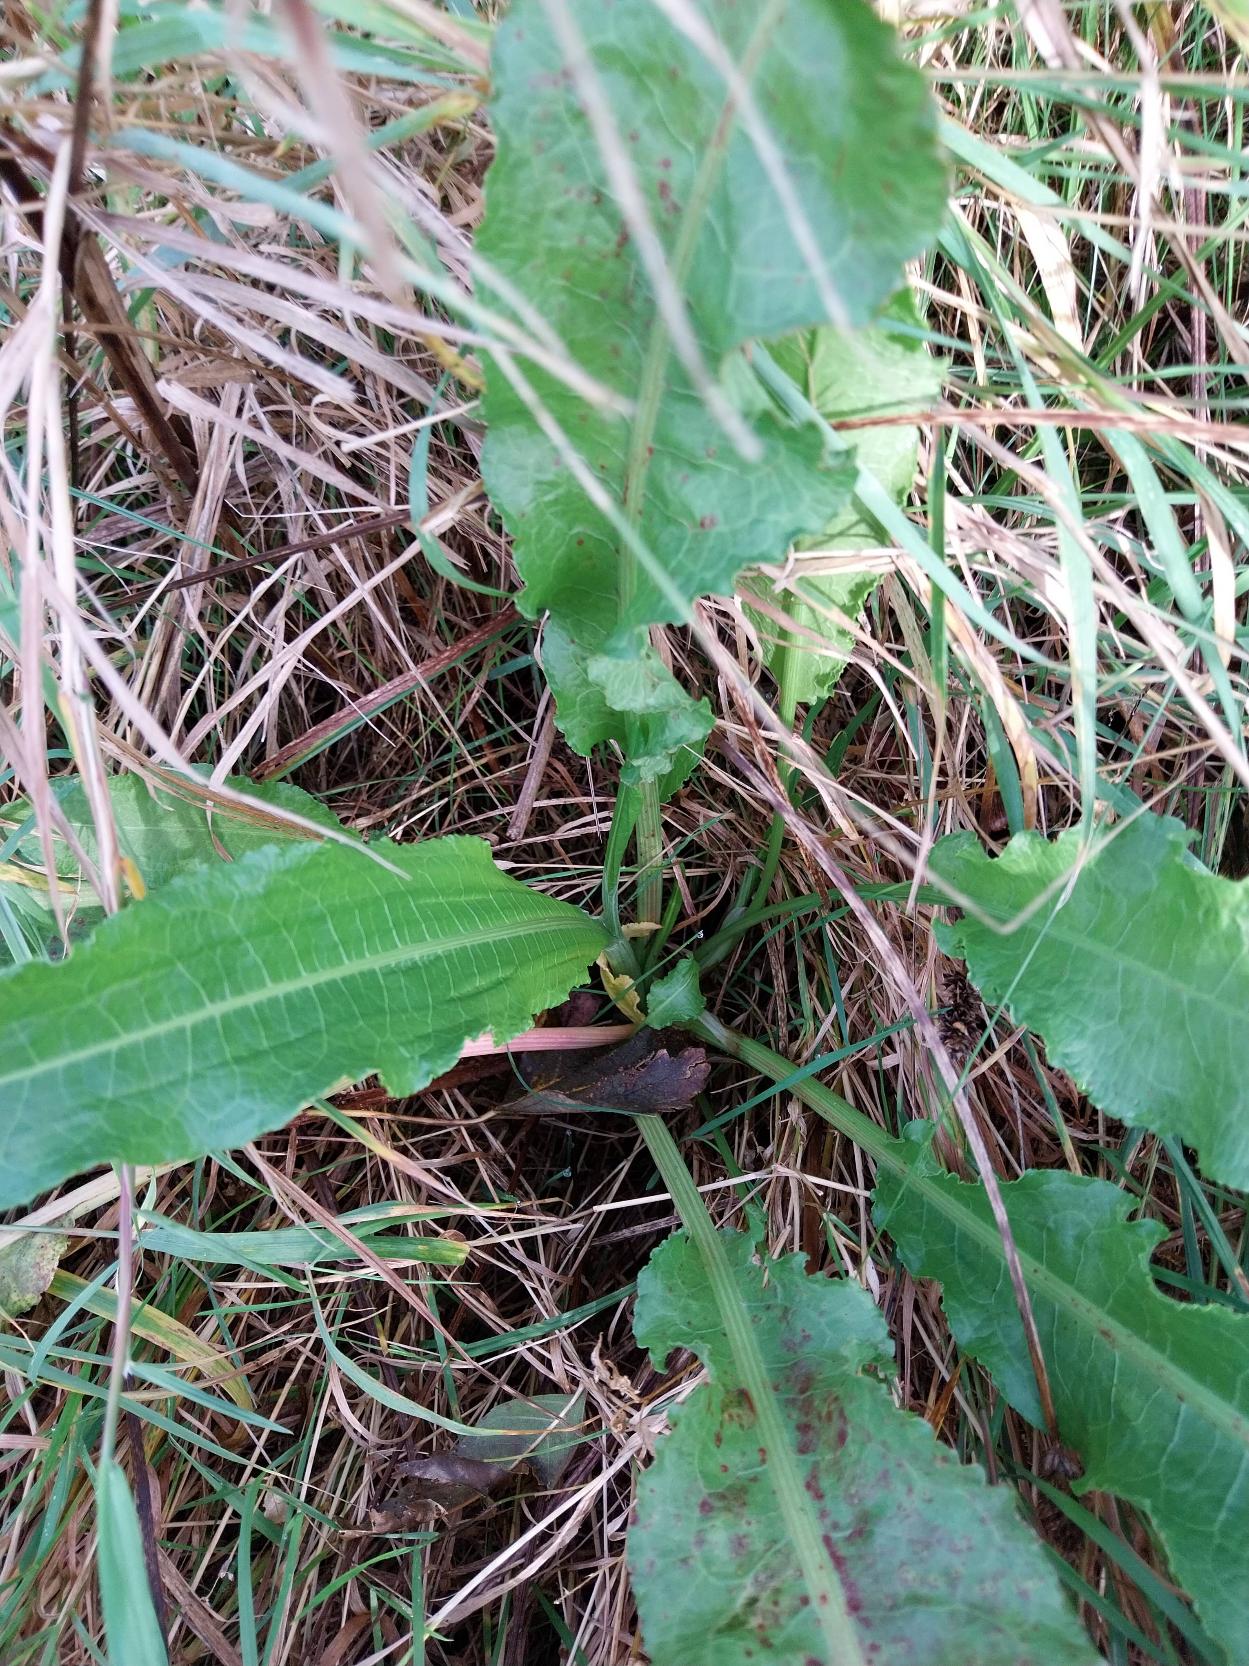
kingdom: Plantae
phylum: Tracheophyta
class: Magnoliopsida
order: Caryophyllales
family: Polygonaceae
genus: Rumex
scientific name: Rumex
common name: Skræppeslægten
